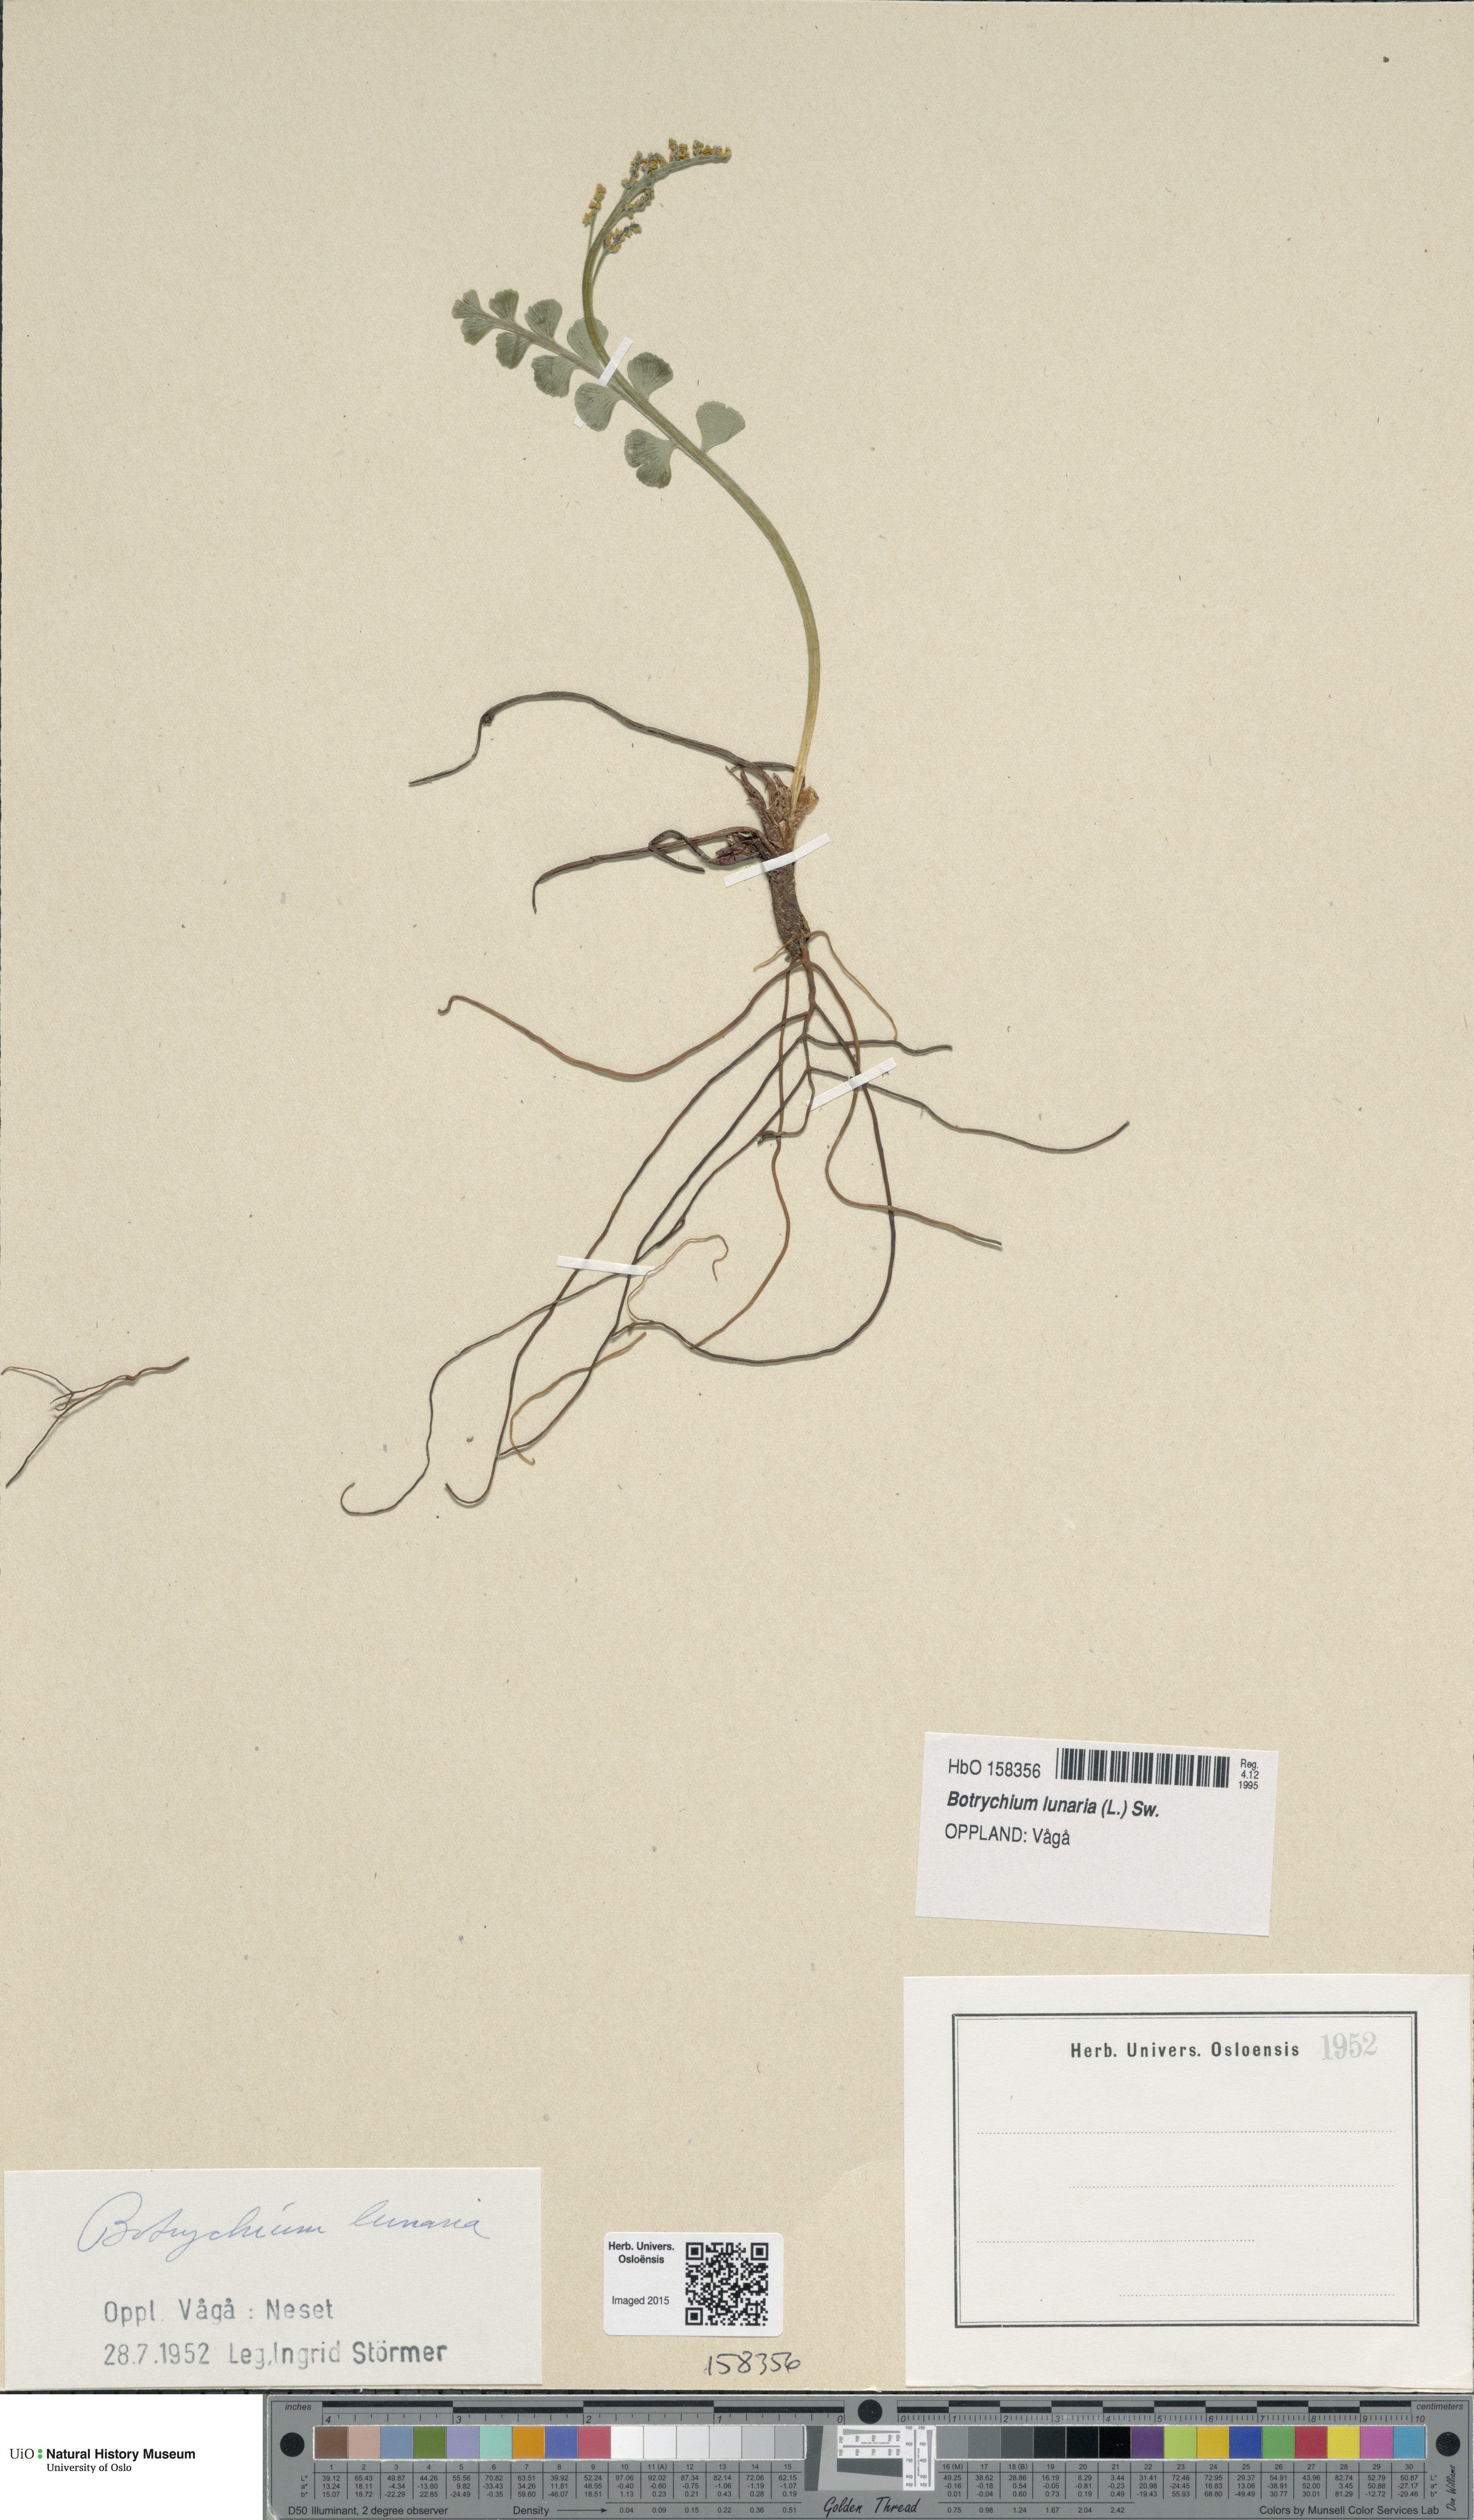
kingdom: Plantae
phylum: Tracheophyta
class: Polypodiopsida
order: Ophioglossales
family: Ophioglossaceae
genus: Botrychium
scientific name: Botrychium lunaria
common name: Moonwort
